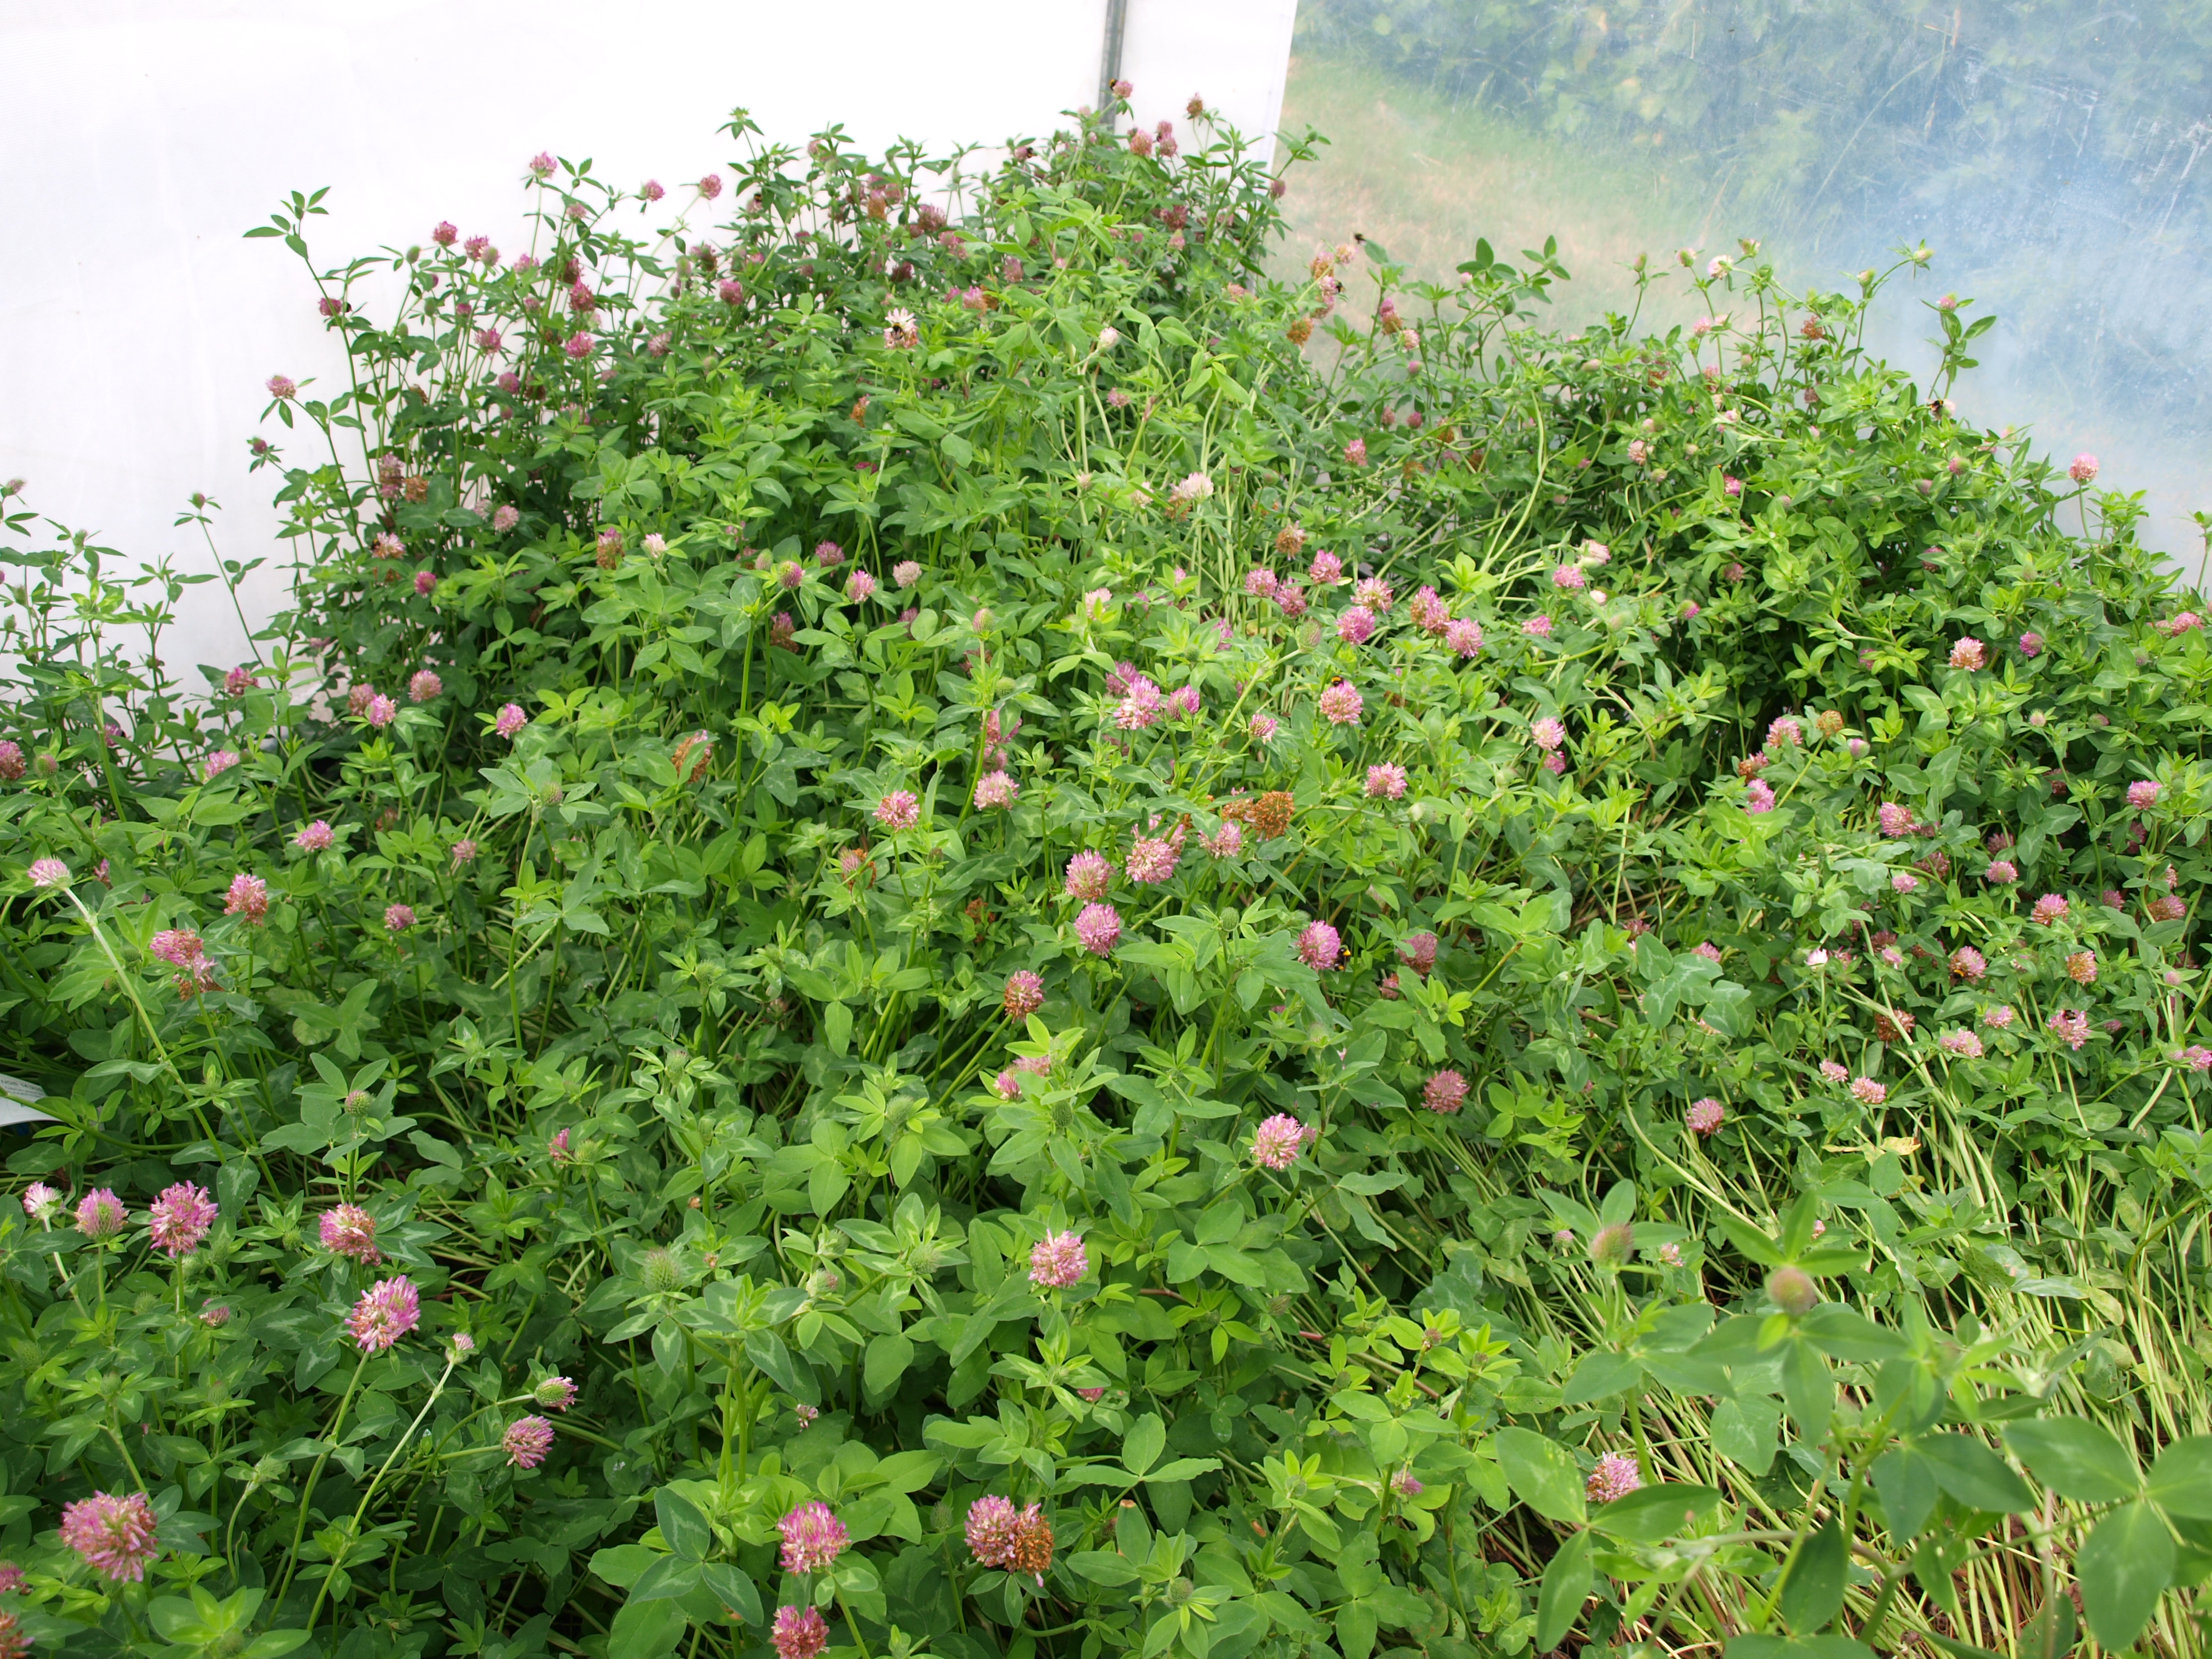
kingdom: Plantae
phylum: Tracheophyta
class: Magnoliopsida
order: Fabales
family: Fabaceae
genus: Trifolium
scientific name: Trifolium pratense
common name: Red clover
